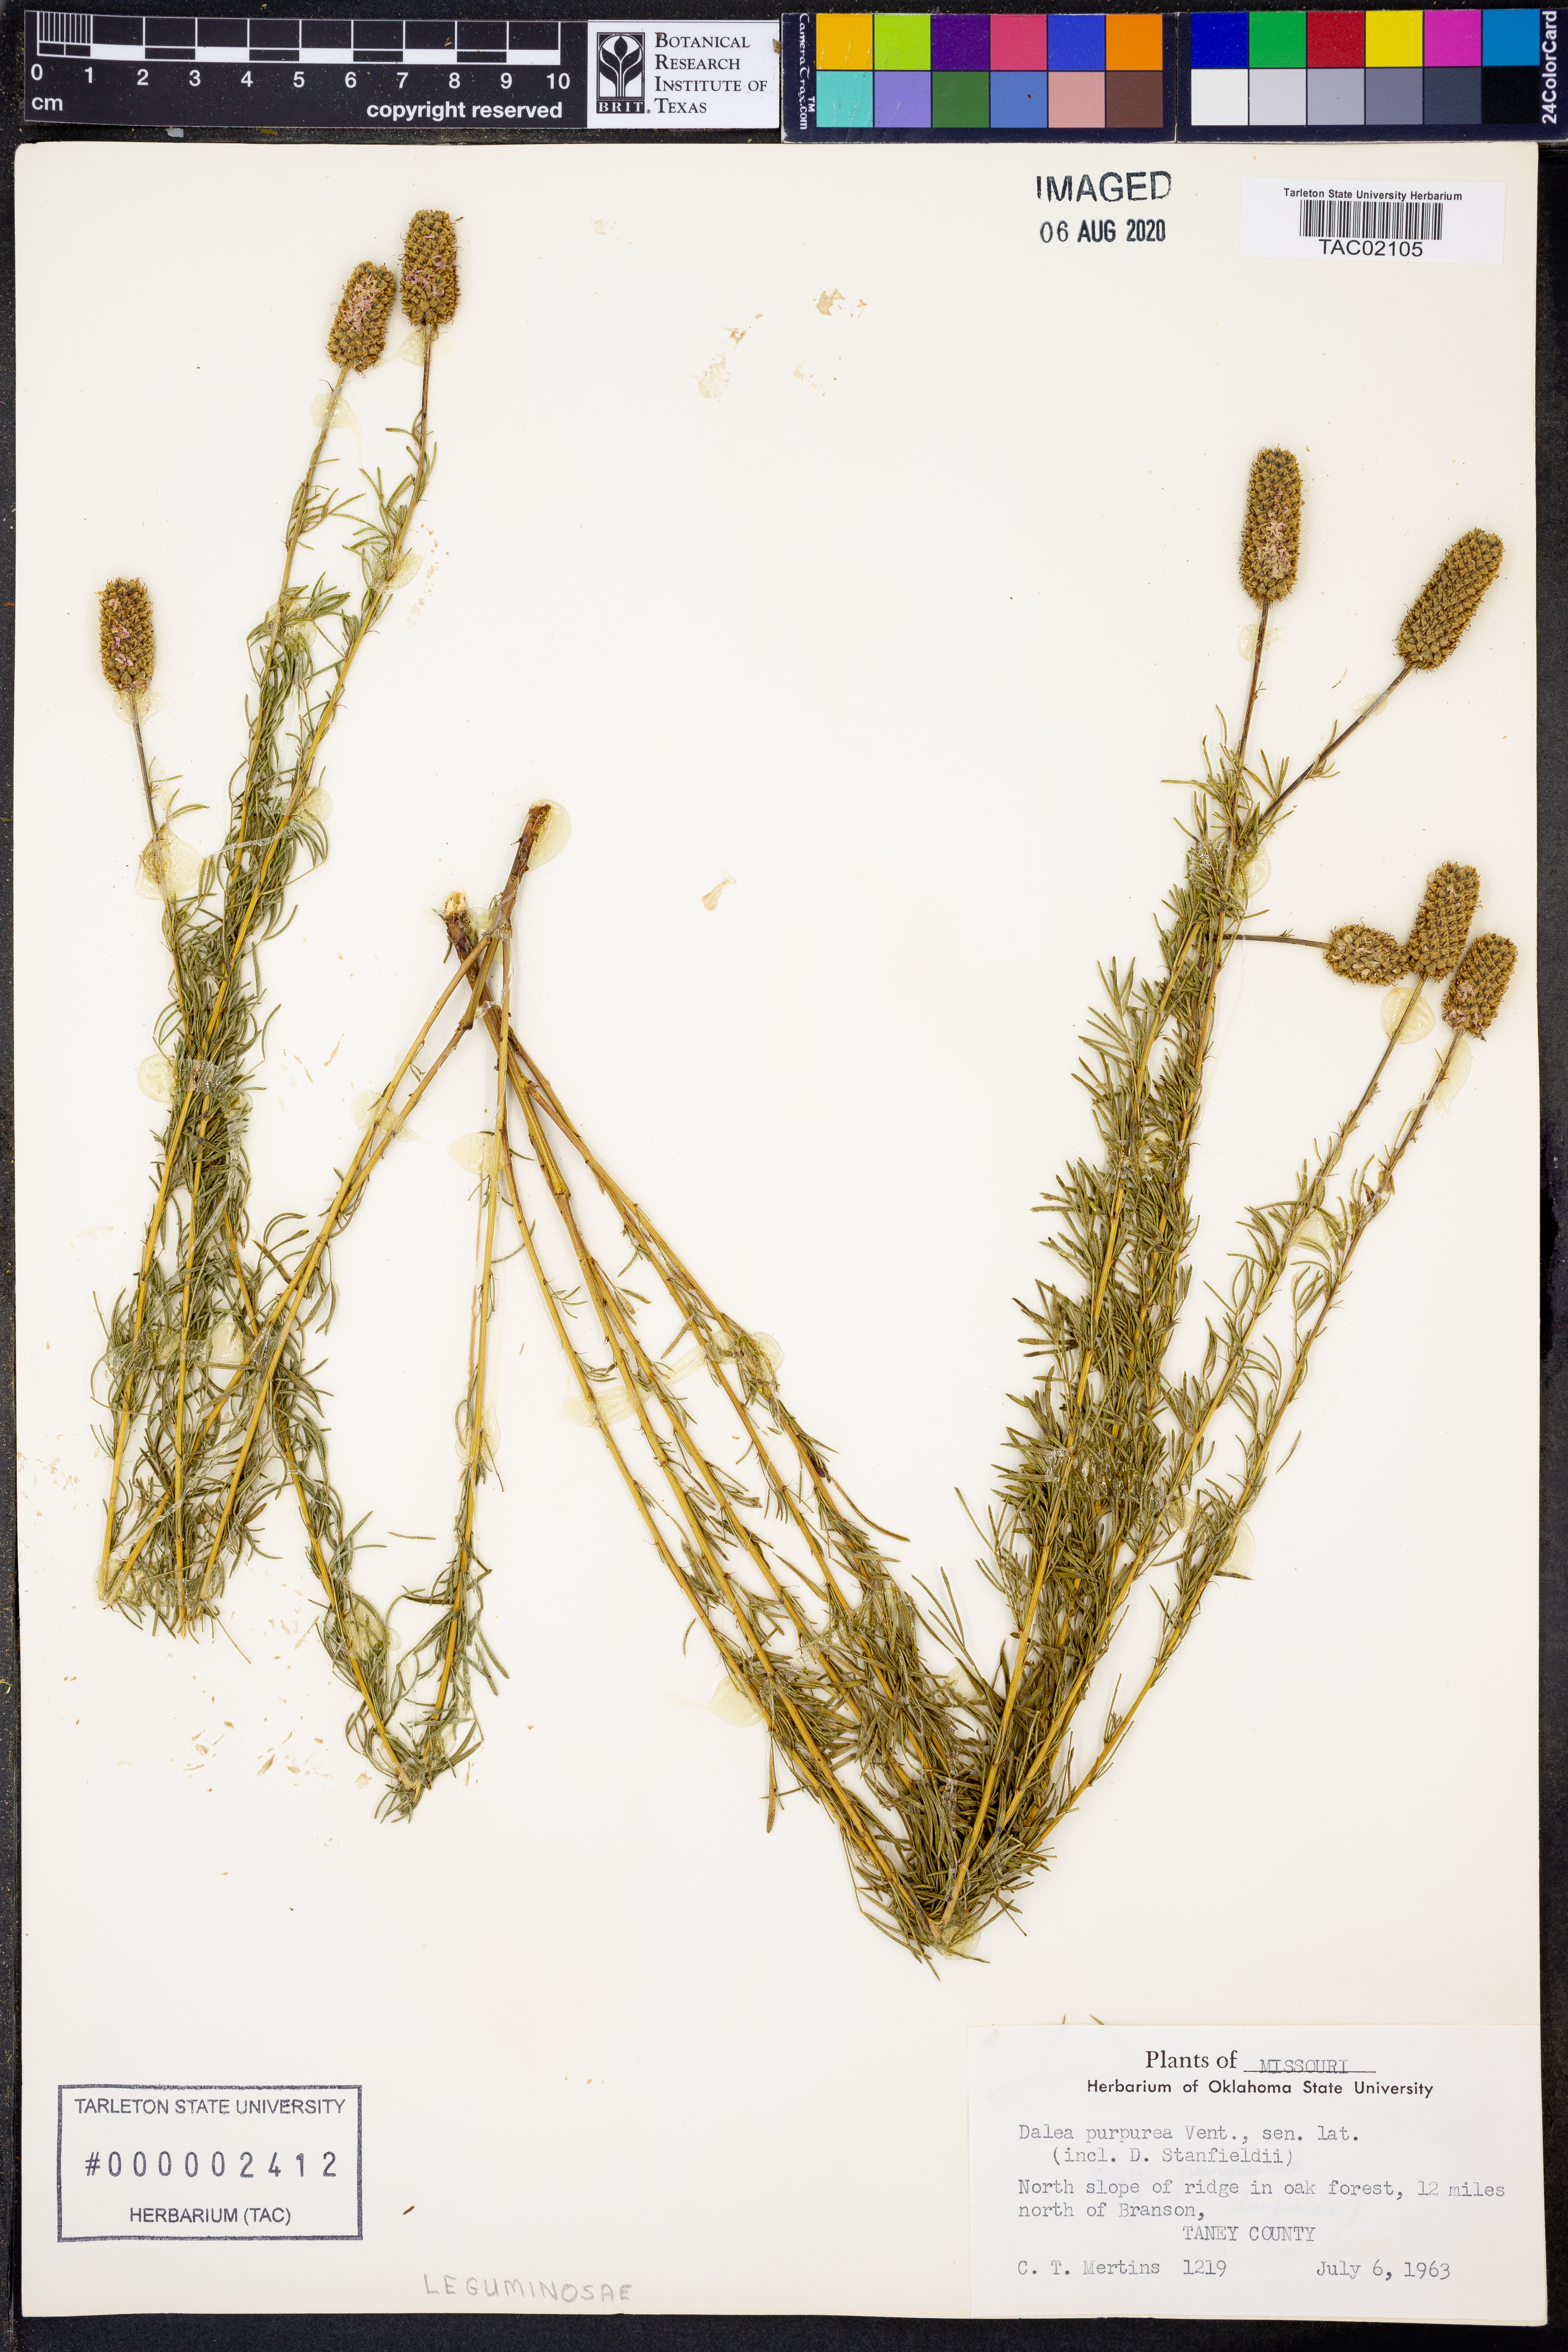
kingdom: Plantae
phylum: Tracheophyta
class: Magnoliopsida
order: Fabales
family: Fabaceae
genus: Dalea
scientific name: Dalea purpurea
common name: Purple prairie-clover
